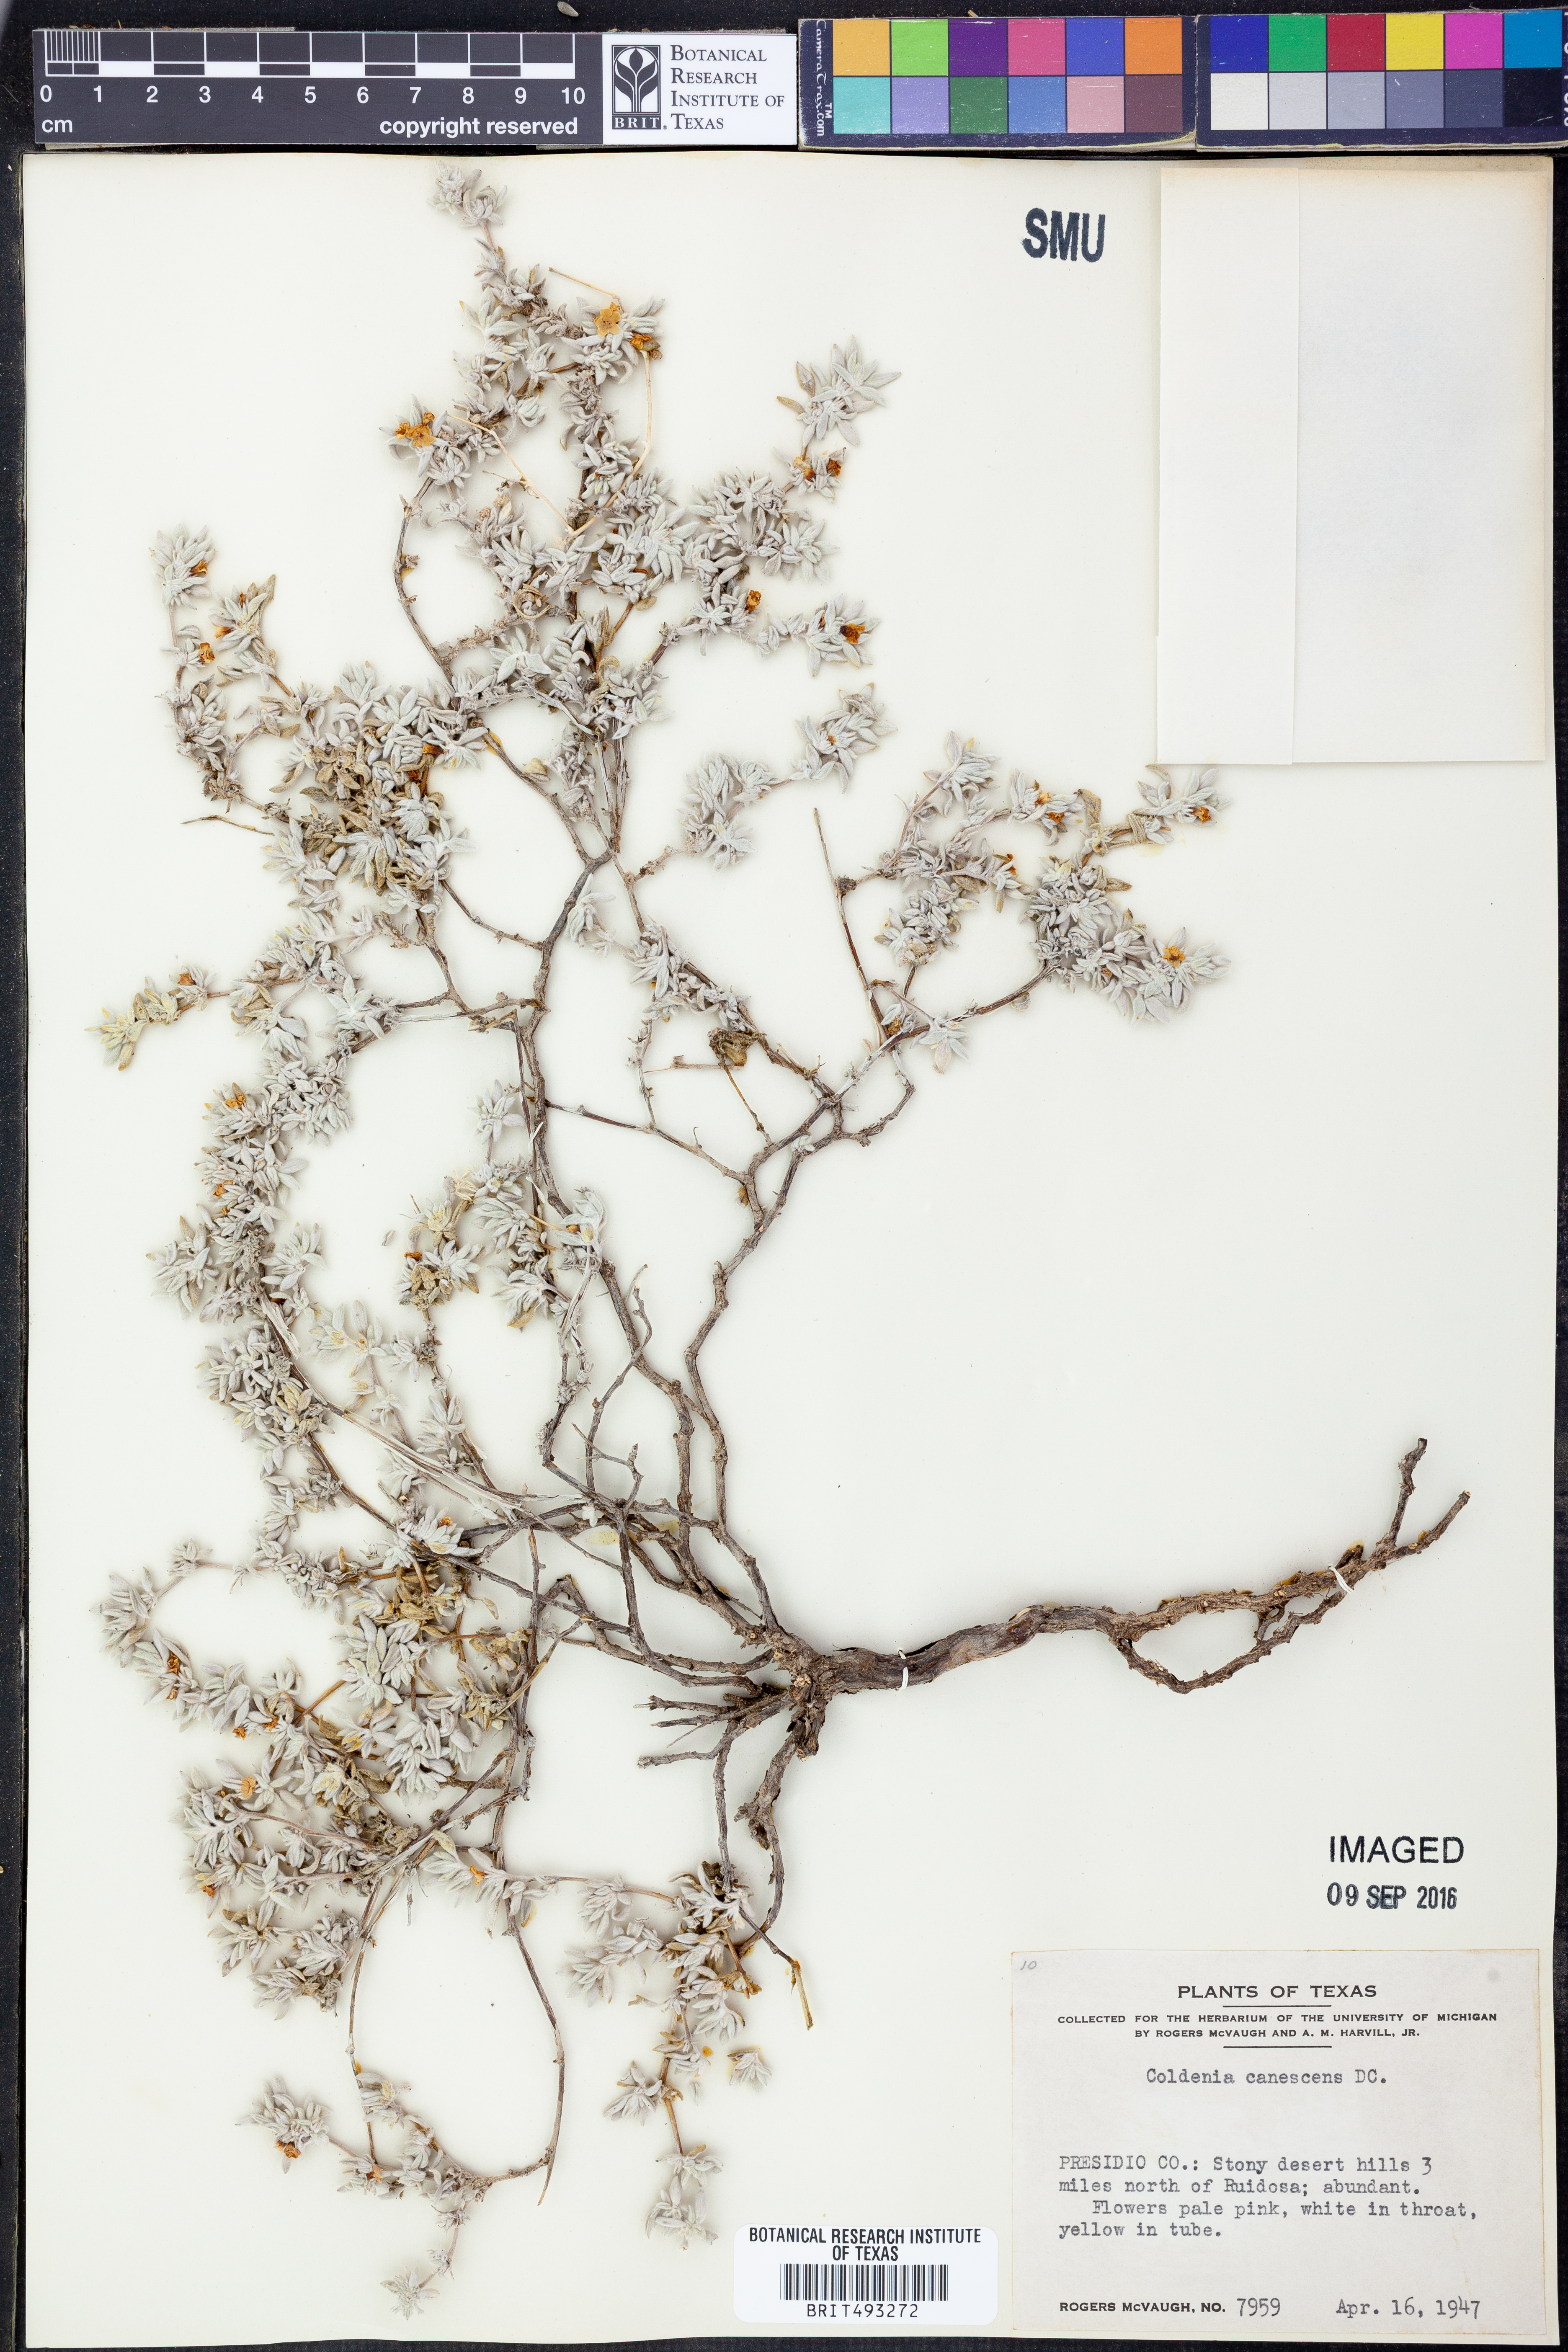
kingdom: Plantae
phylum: Tracheophyta
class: Magnoliopsida
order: Boraginales
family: Ehretiaceae
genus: Tiquilia
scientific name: Tiquilia canescens
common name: Hairy tiquilia
